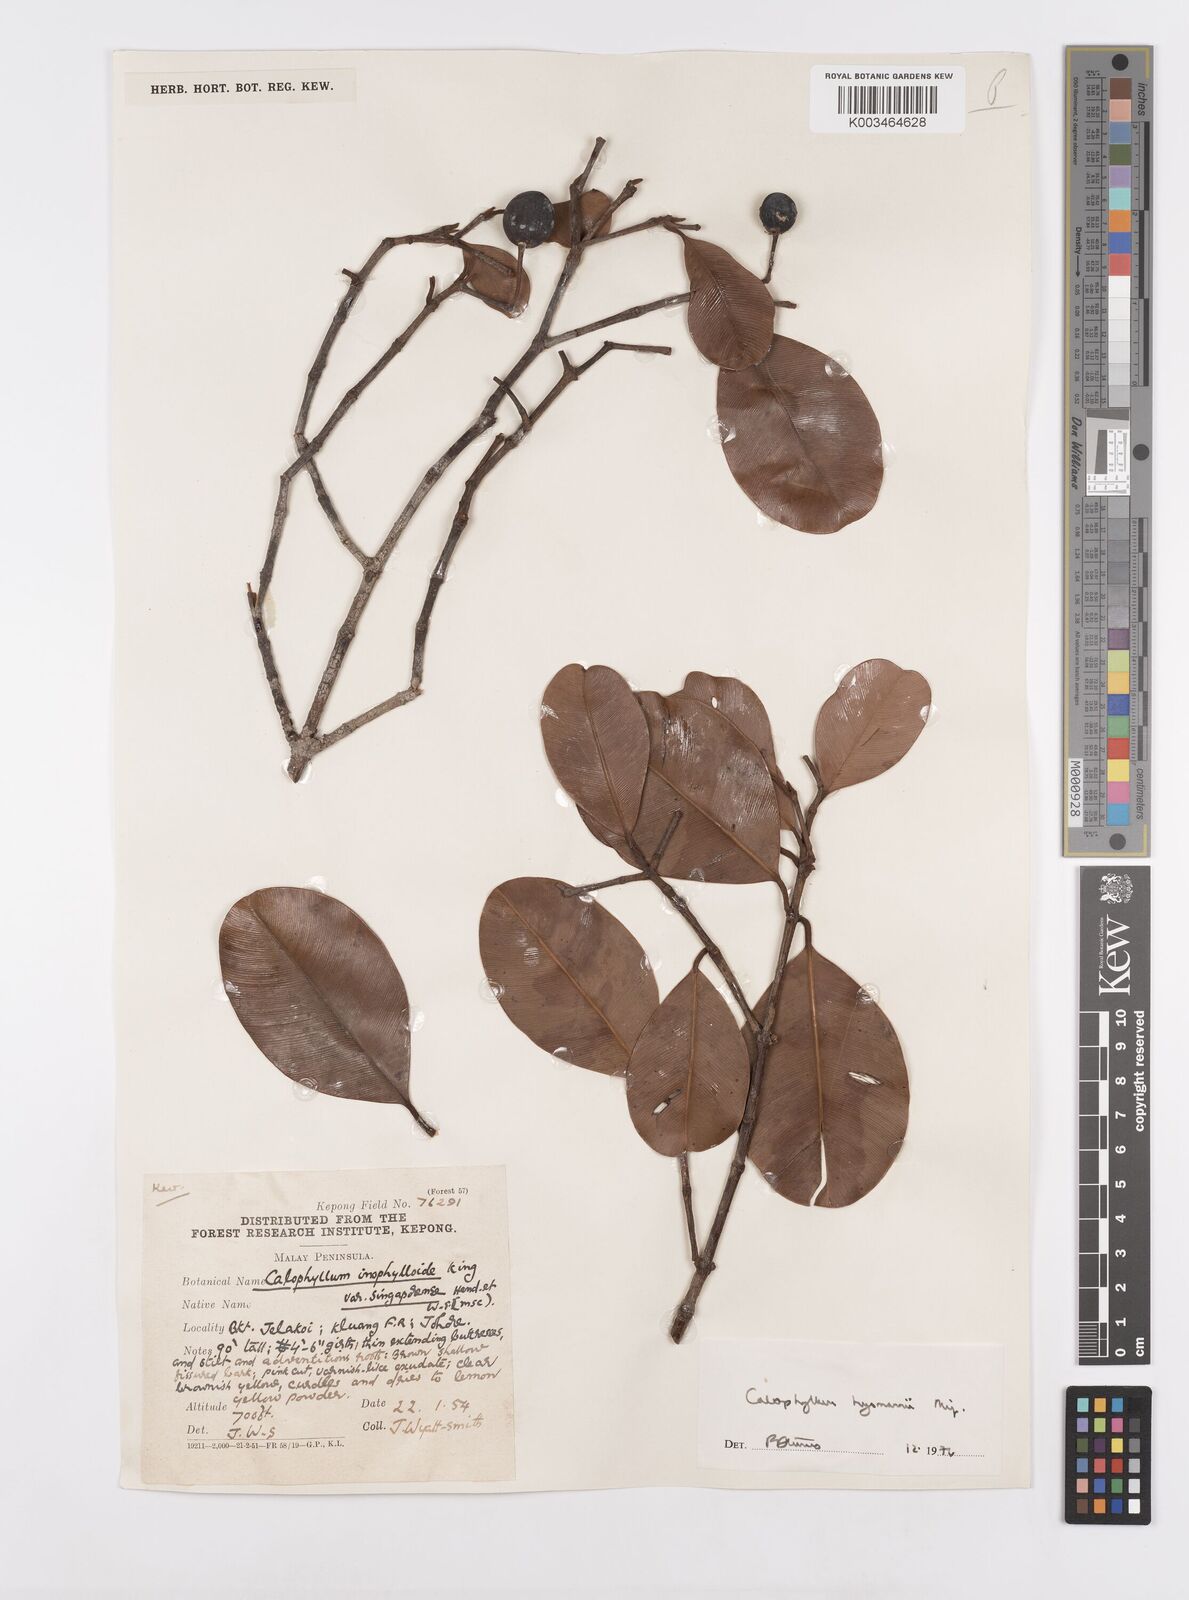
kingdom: Plantae
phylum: Tracheophyta
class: Magnoliopsida
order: Malpighiales
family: Calophyllaceae
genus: Calophyllum
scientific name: Calophyllum teysmannii
